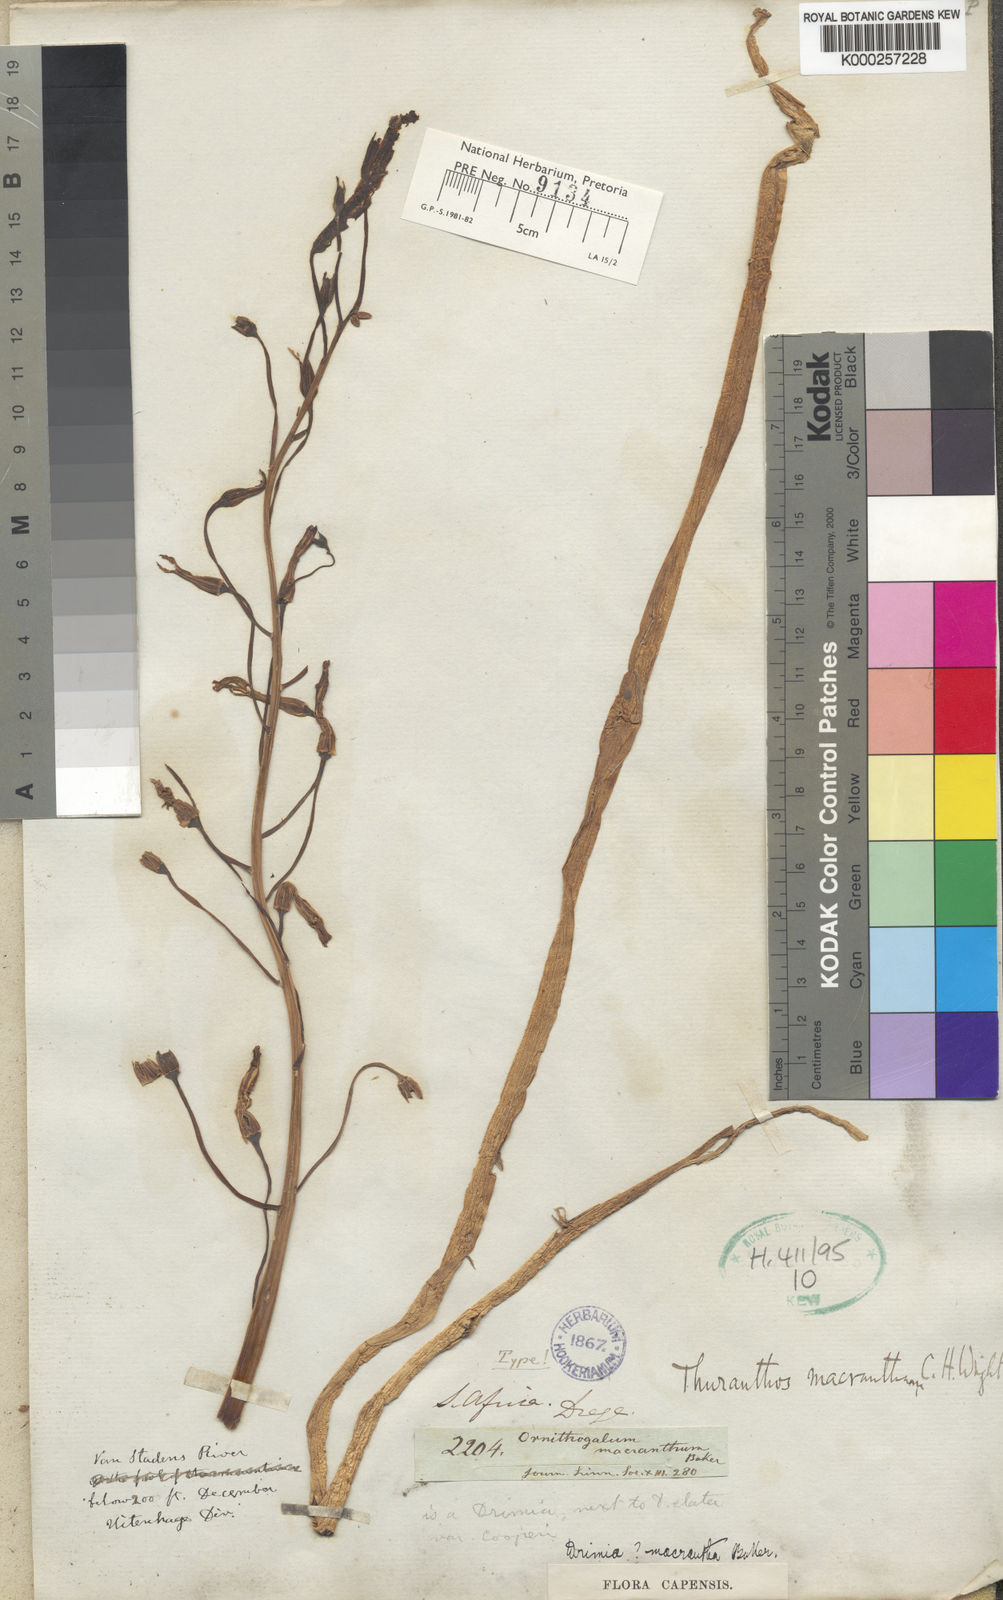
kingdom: Plantae
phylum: Tracheophyta
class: Liliopsida
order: Asparagales
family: Asparagaceae
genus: Drimia
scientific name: Drimia macrantha
